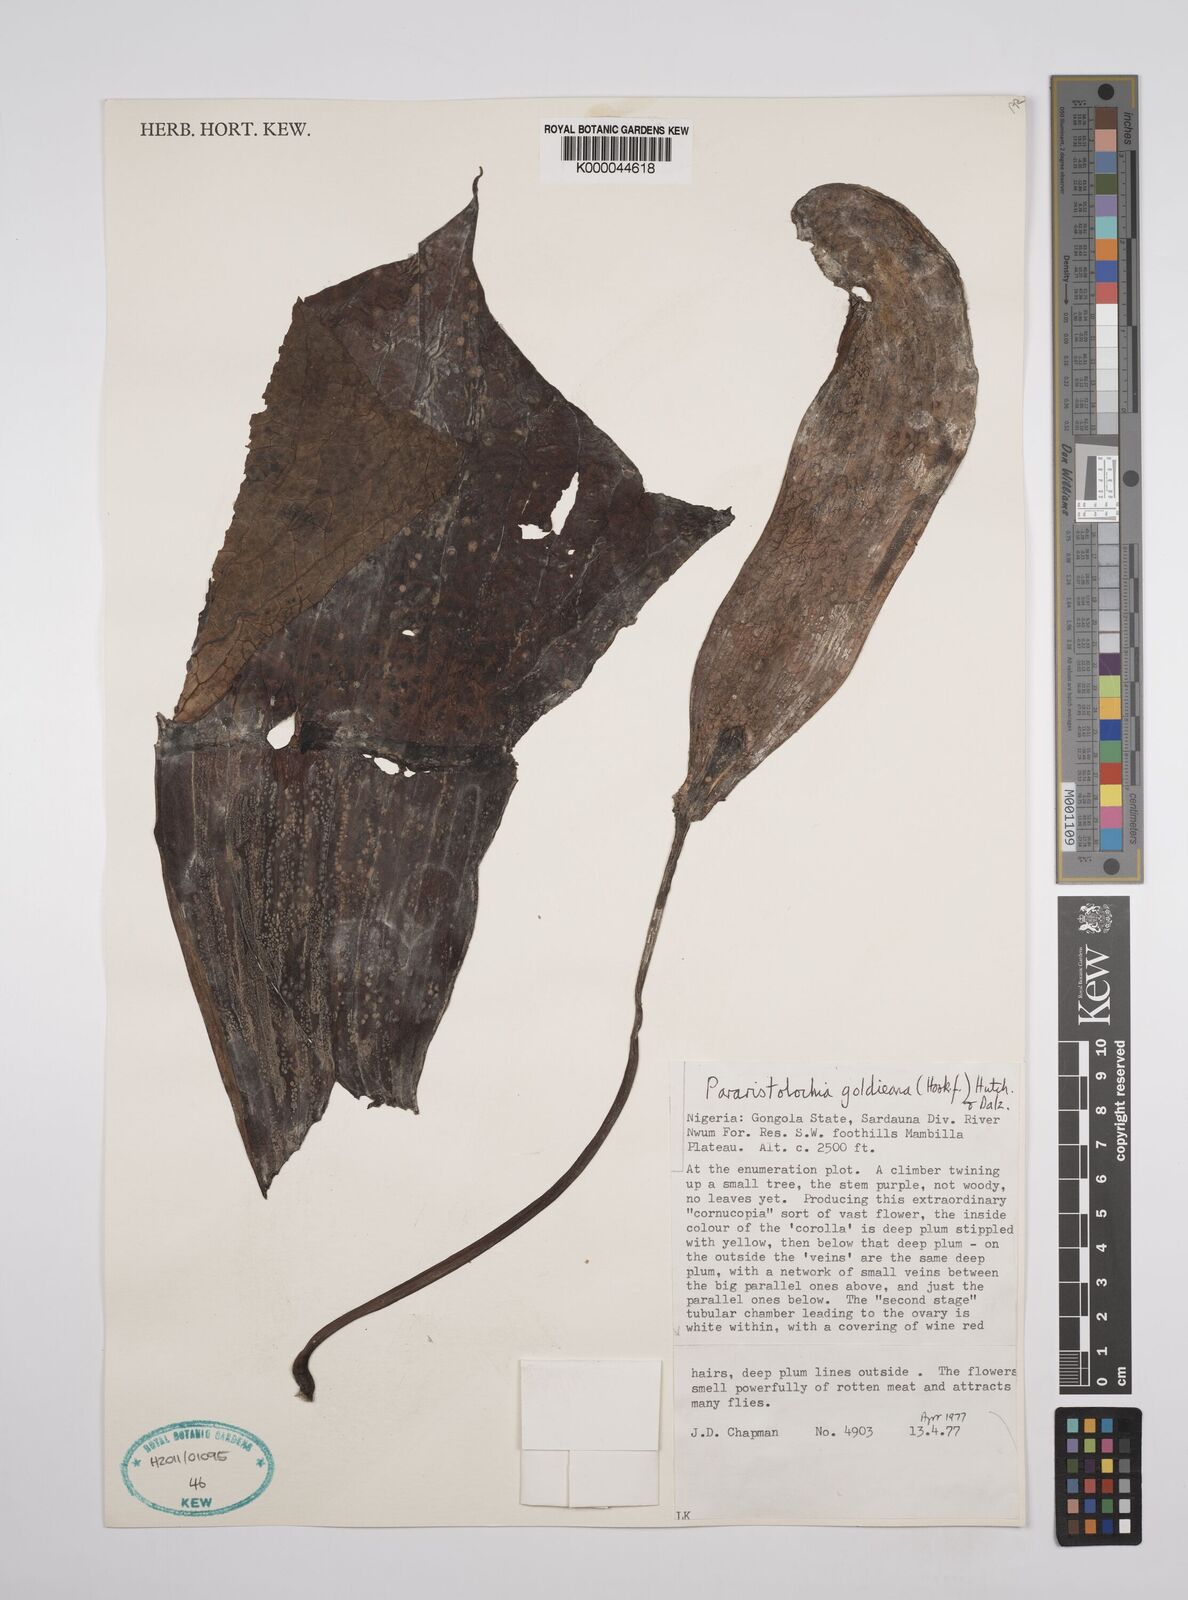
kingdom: Plantae
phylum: Tracheophyta
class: Magnoliopsida
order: Piperales
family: Aristolochiaceae
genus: Aristolochia
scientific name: Aristolochia goldieana
